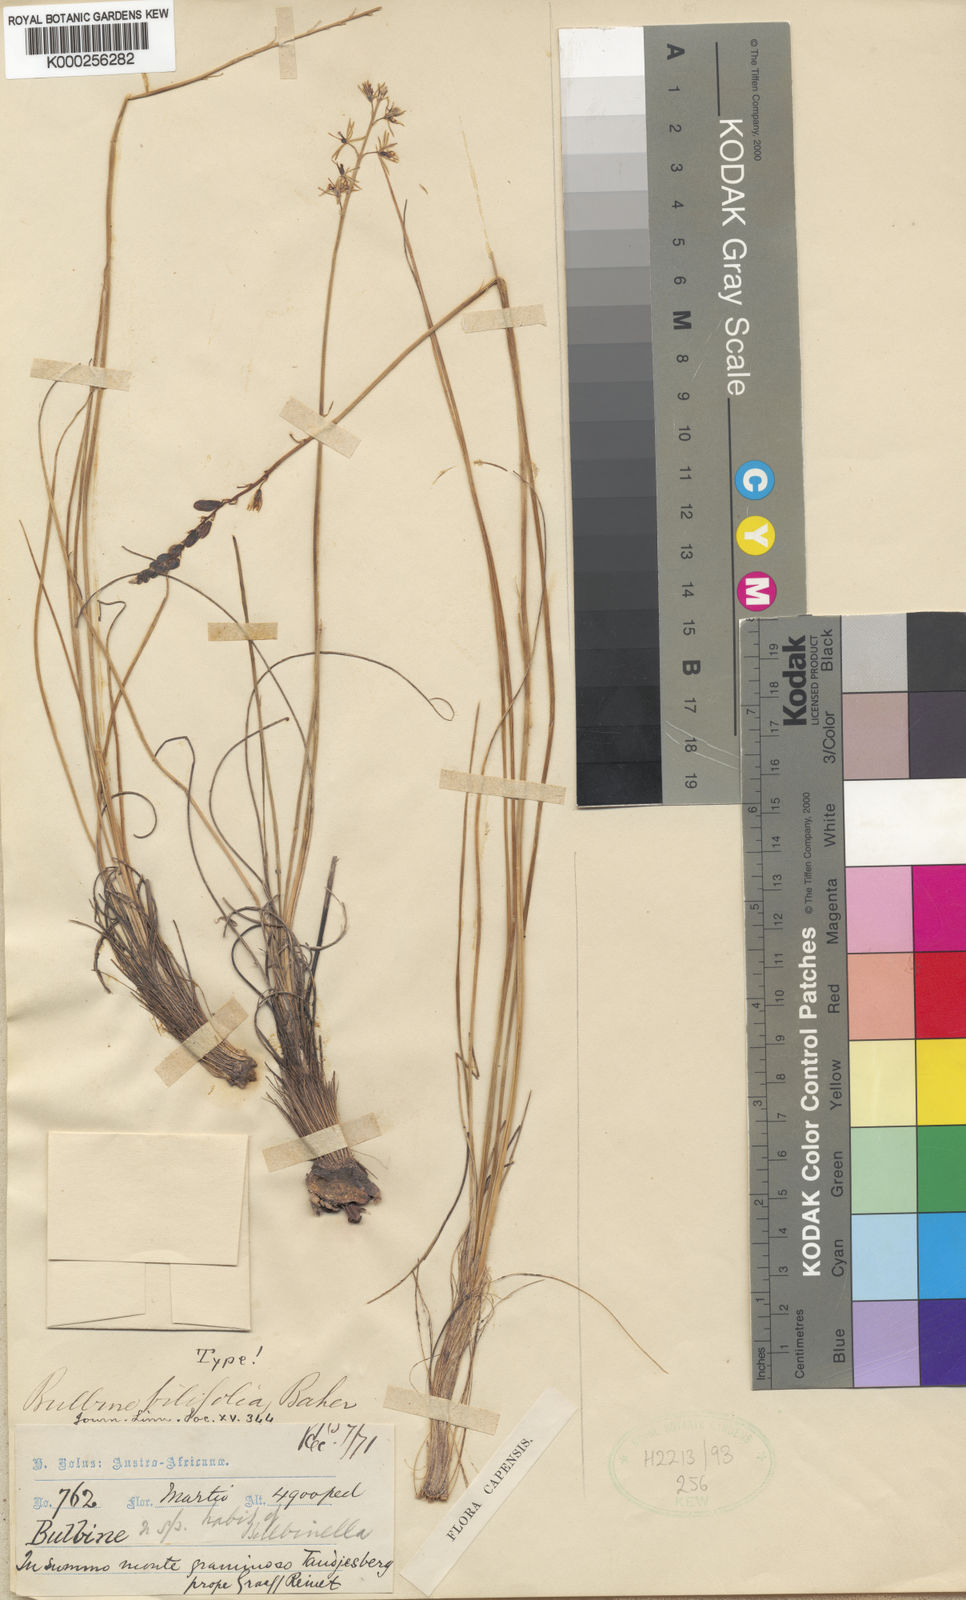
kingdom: Plantae
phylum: Tracheophyta
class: Liliopsida
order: Asparagales
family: Asphodelaceae
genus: Bulbine
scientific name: Bulbine favosa
